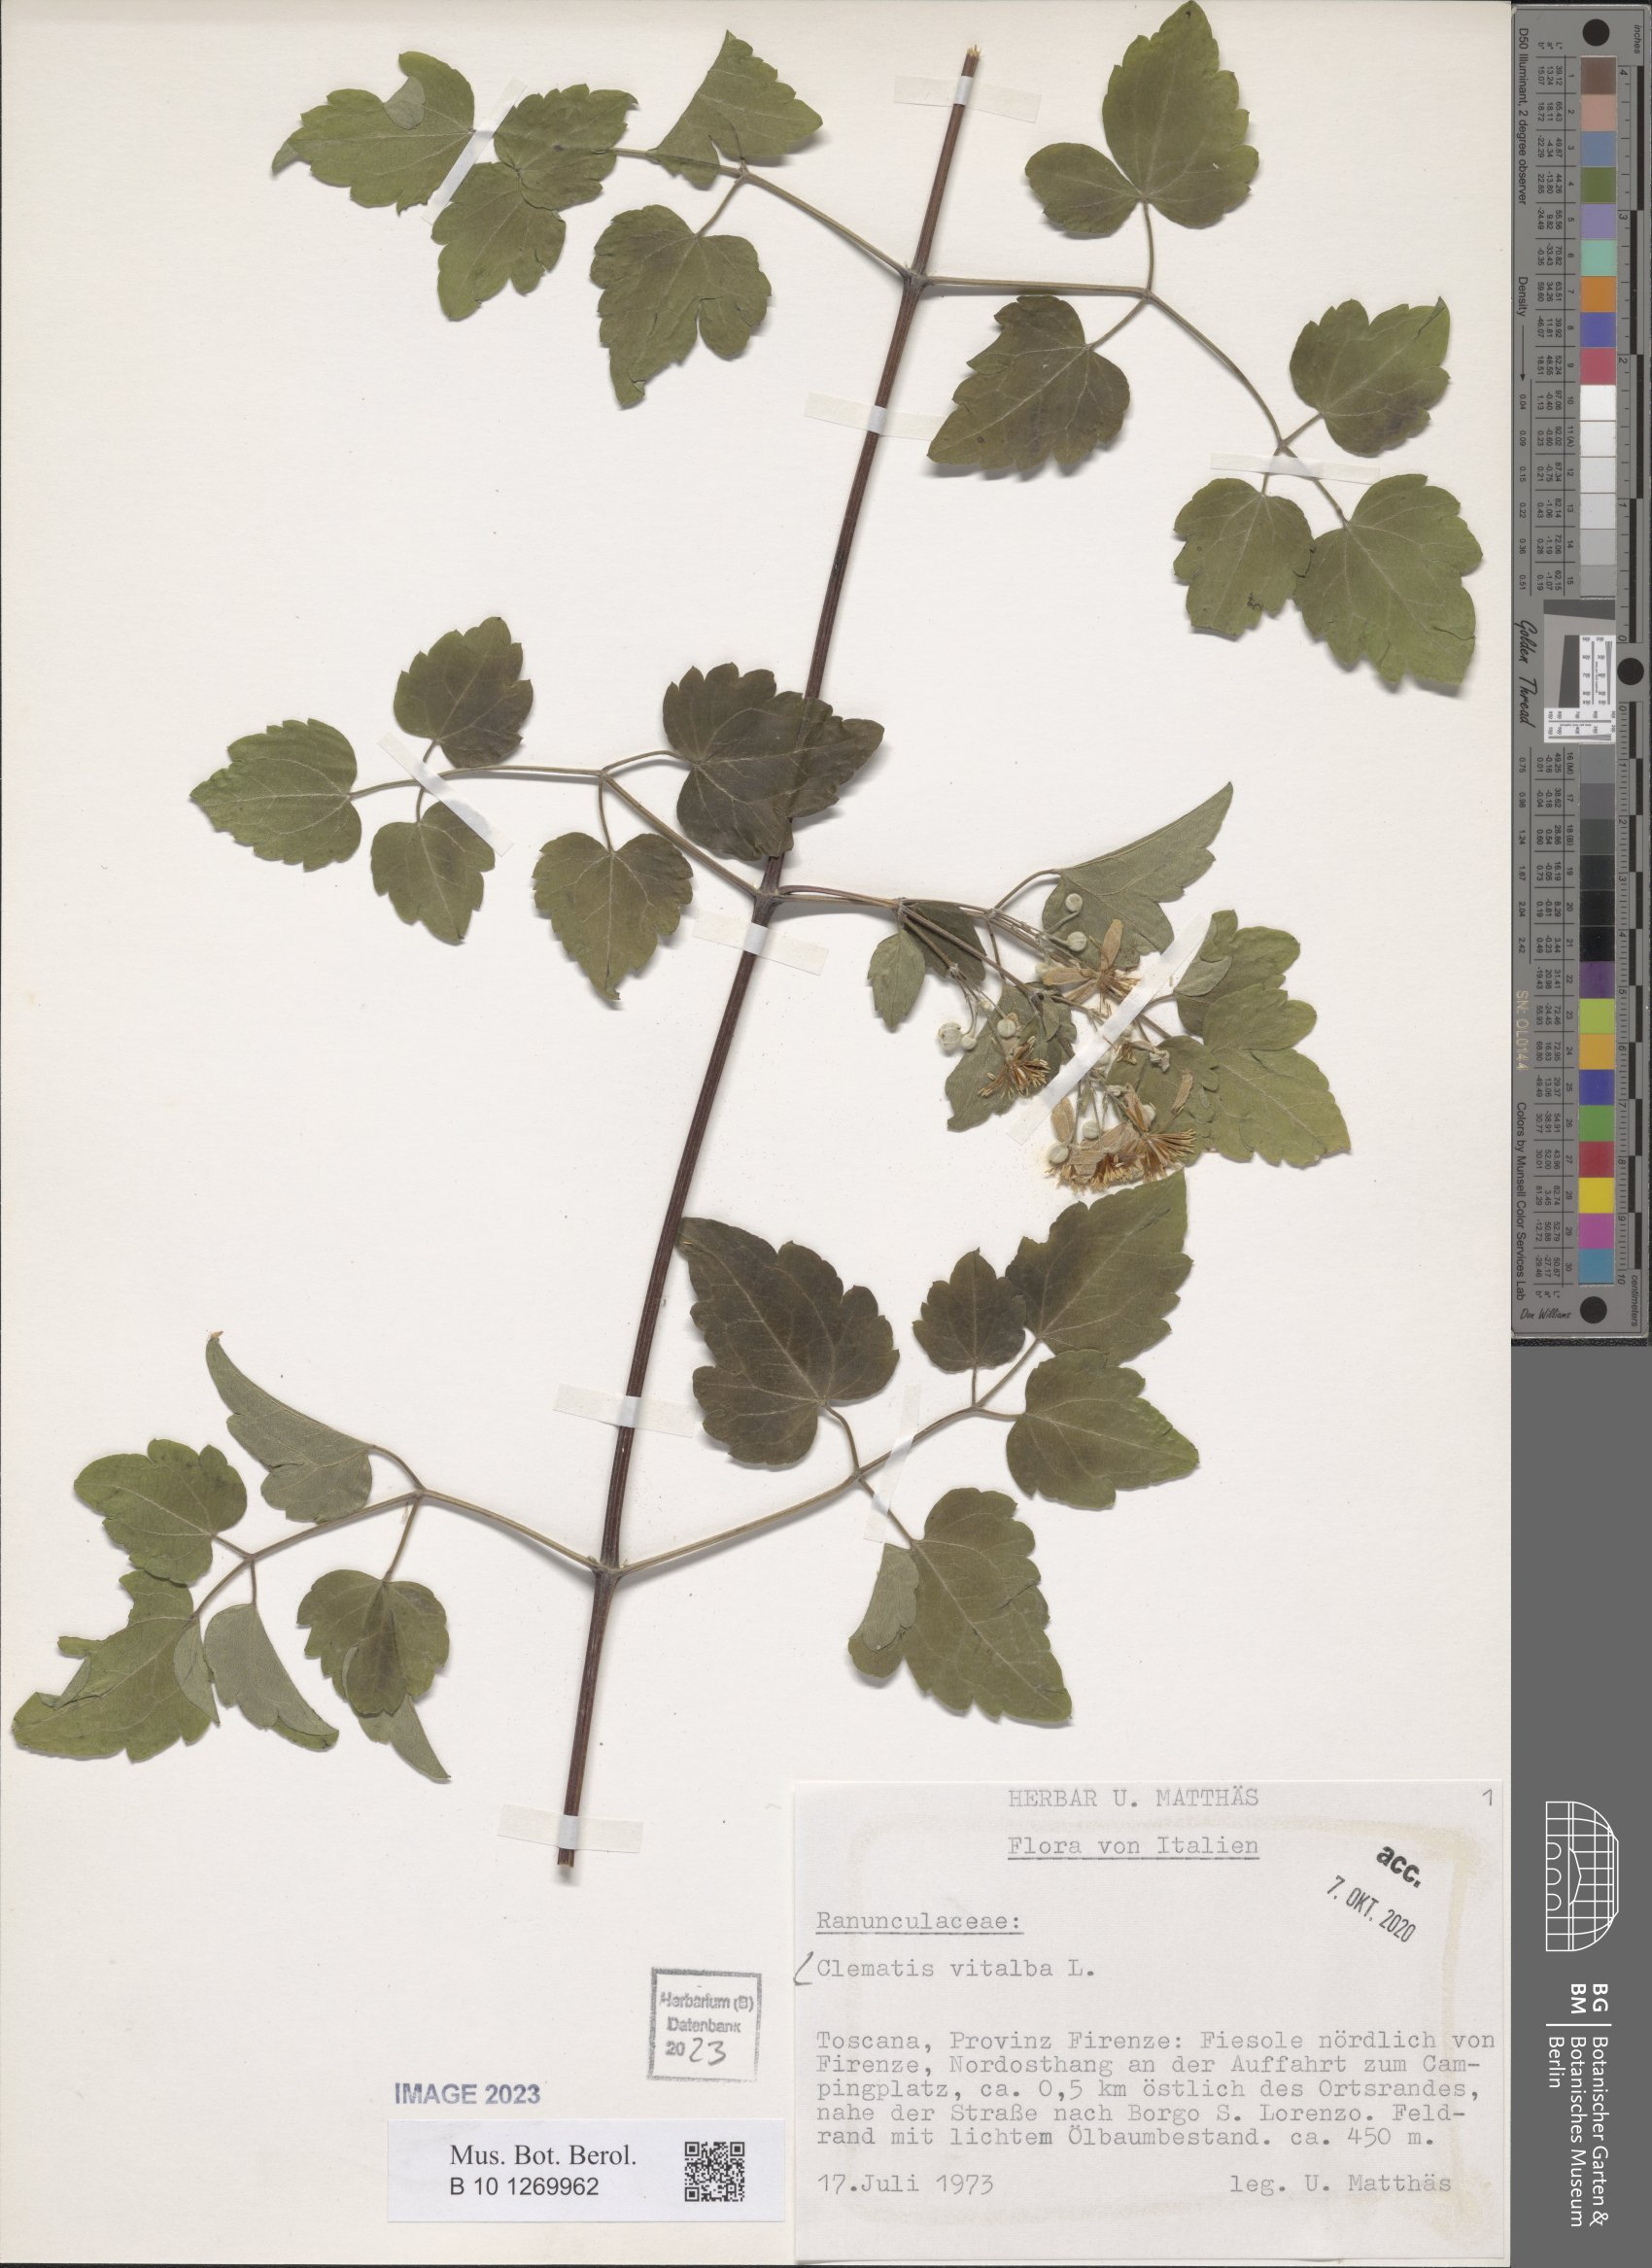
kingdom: Plantae
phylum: Tracheophyta
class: Magnoliopsida
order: Ranunculales
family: Ranunculaceae
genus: Clematis
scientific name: Clematis vitalba
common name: Evergreen clematis
